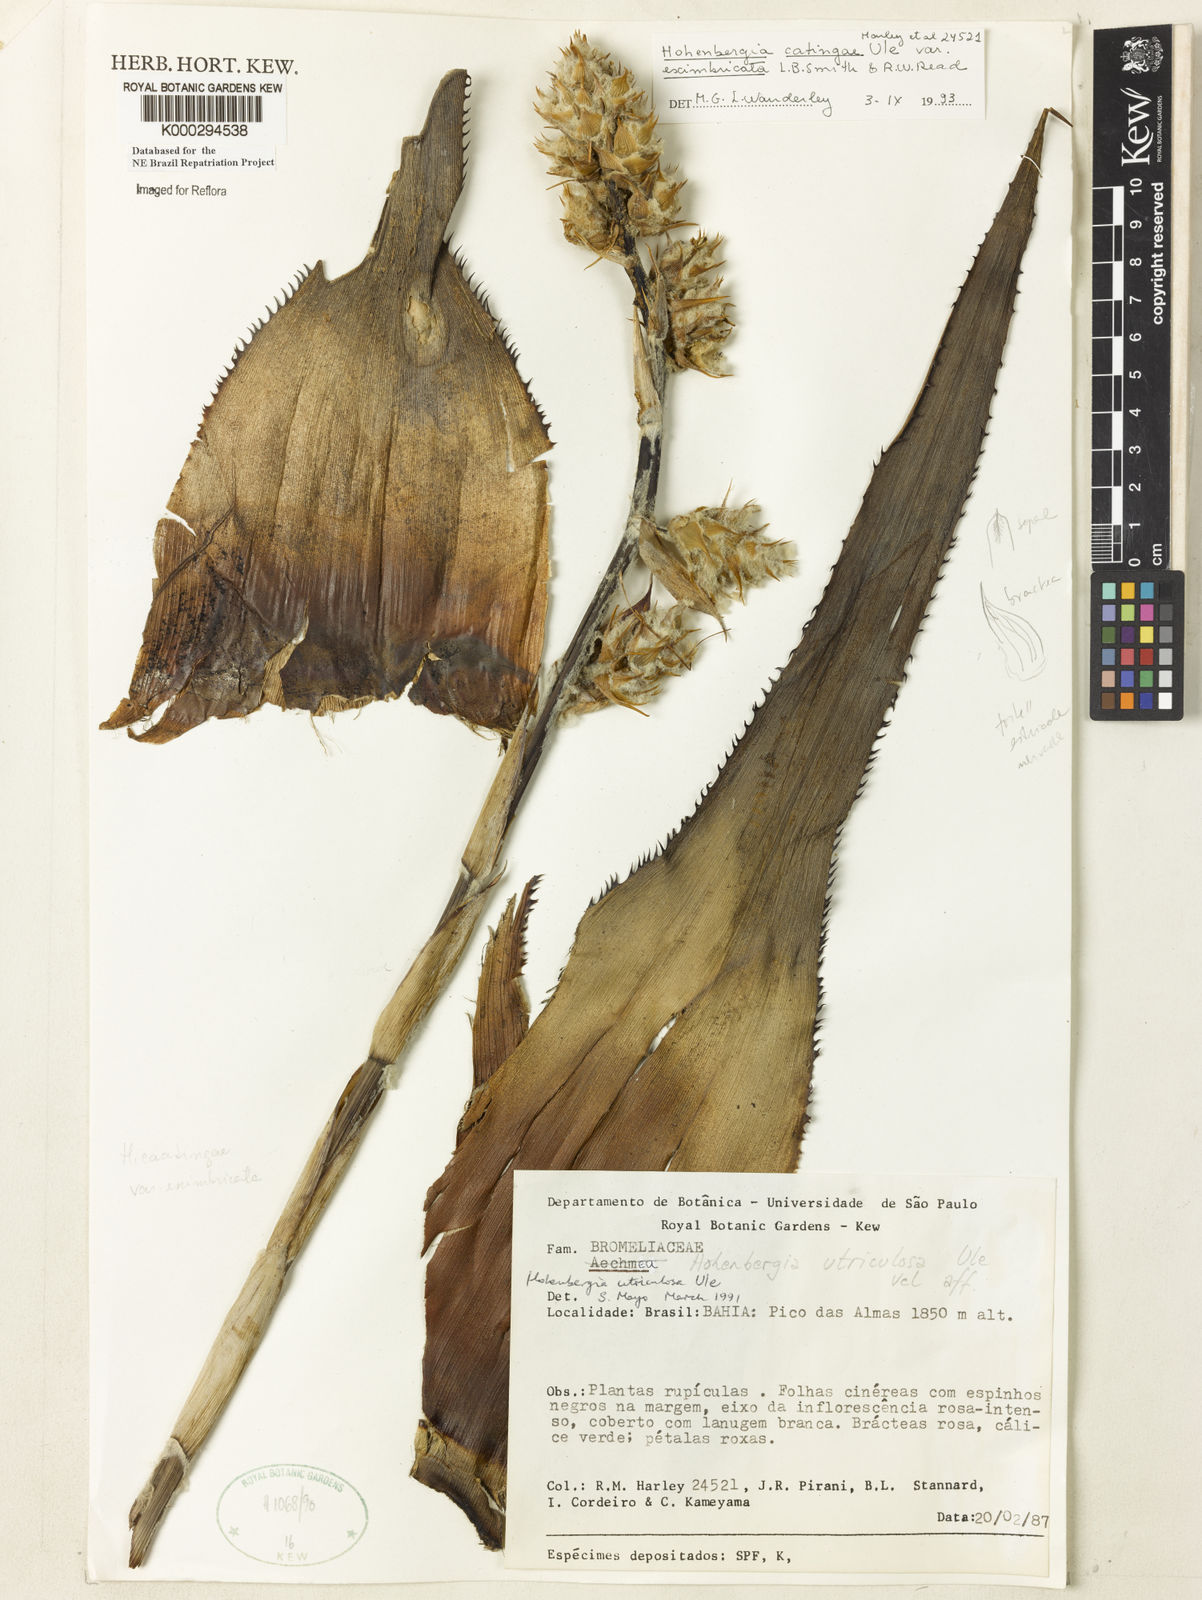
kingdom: Plantae
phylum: Tracheophyta
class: Liliopsida
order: Poales
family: Bromeliaceae
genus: Hohenbergia
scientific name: Hohenbergia catingae
